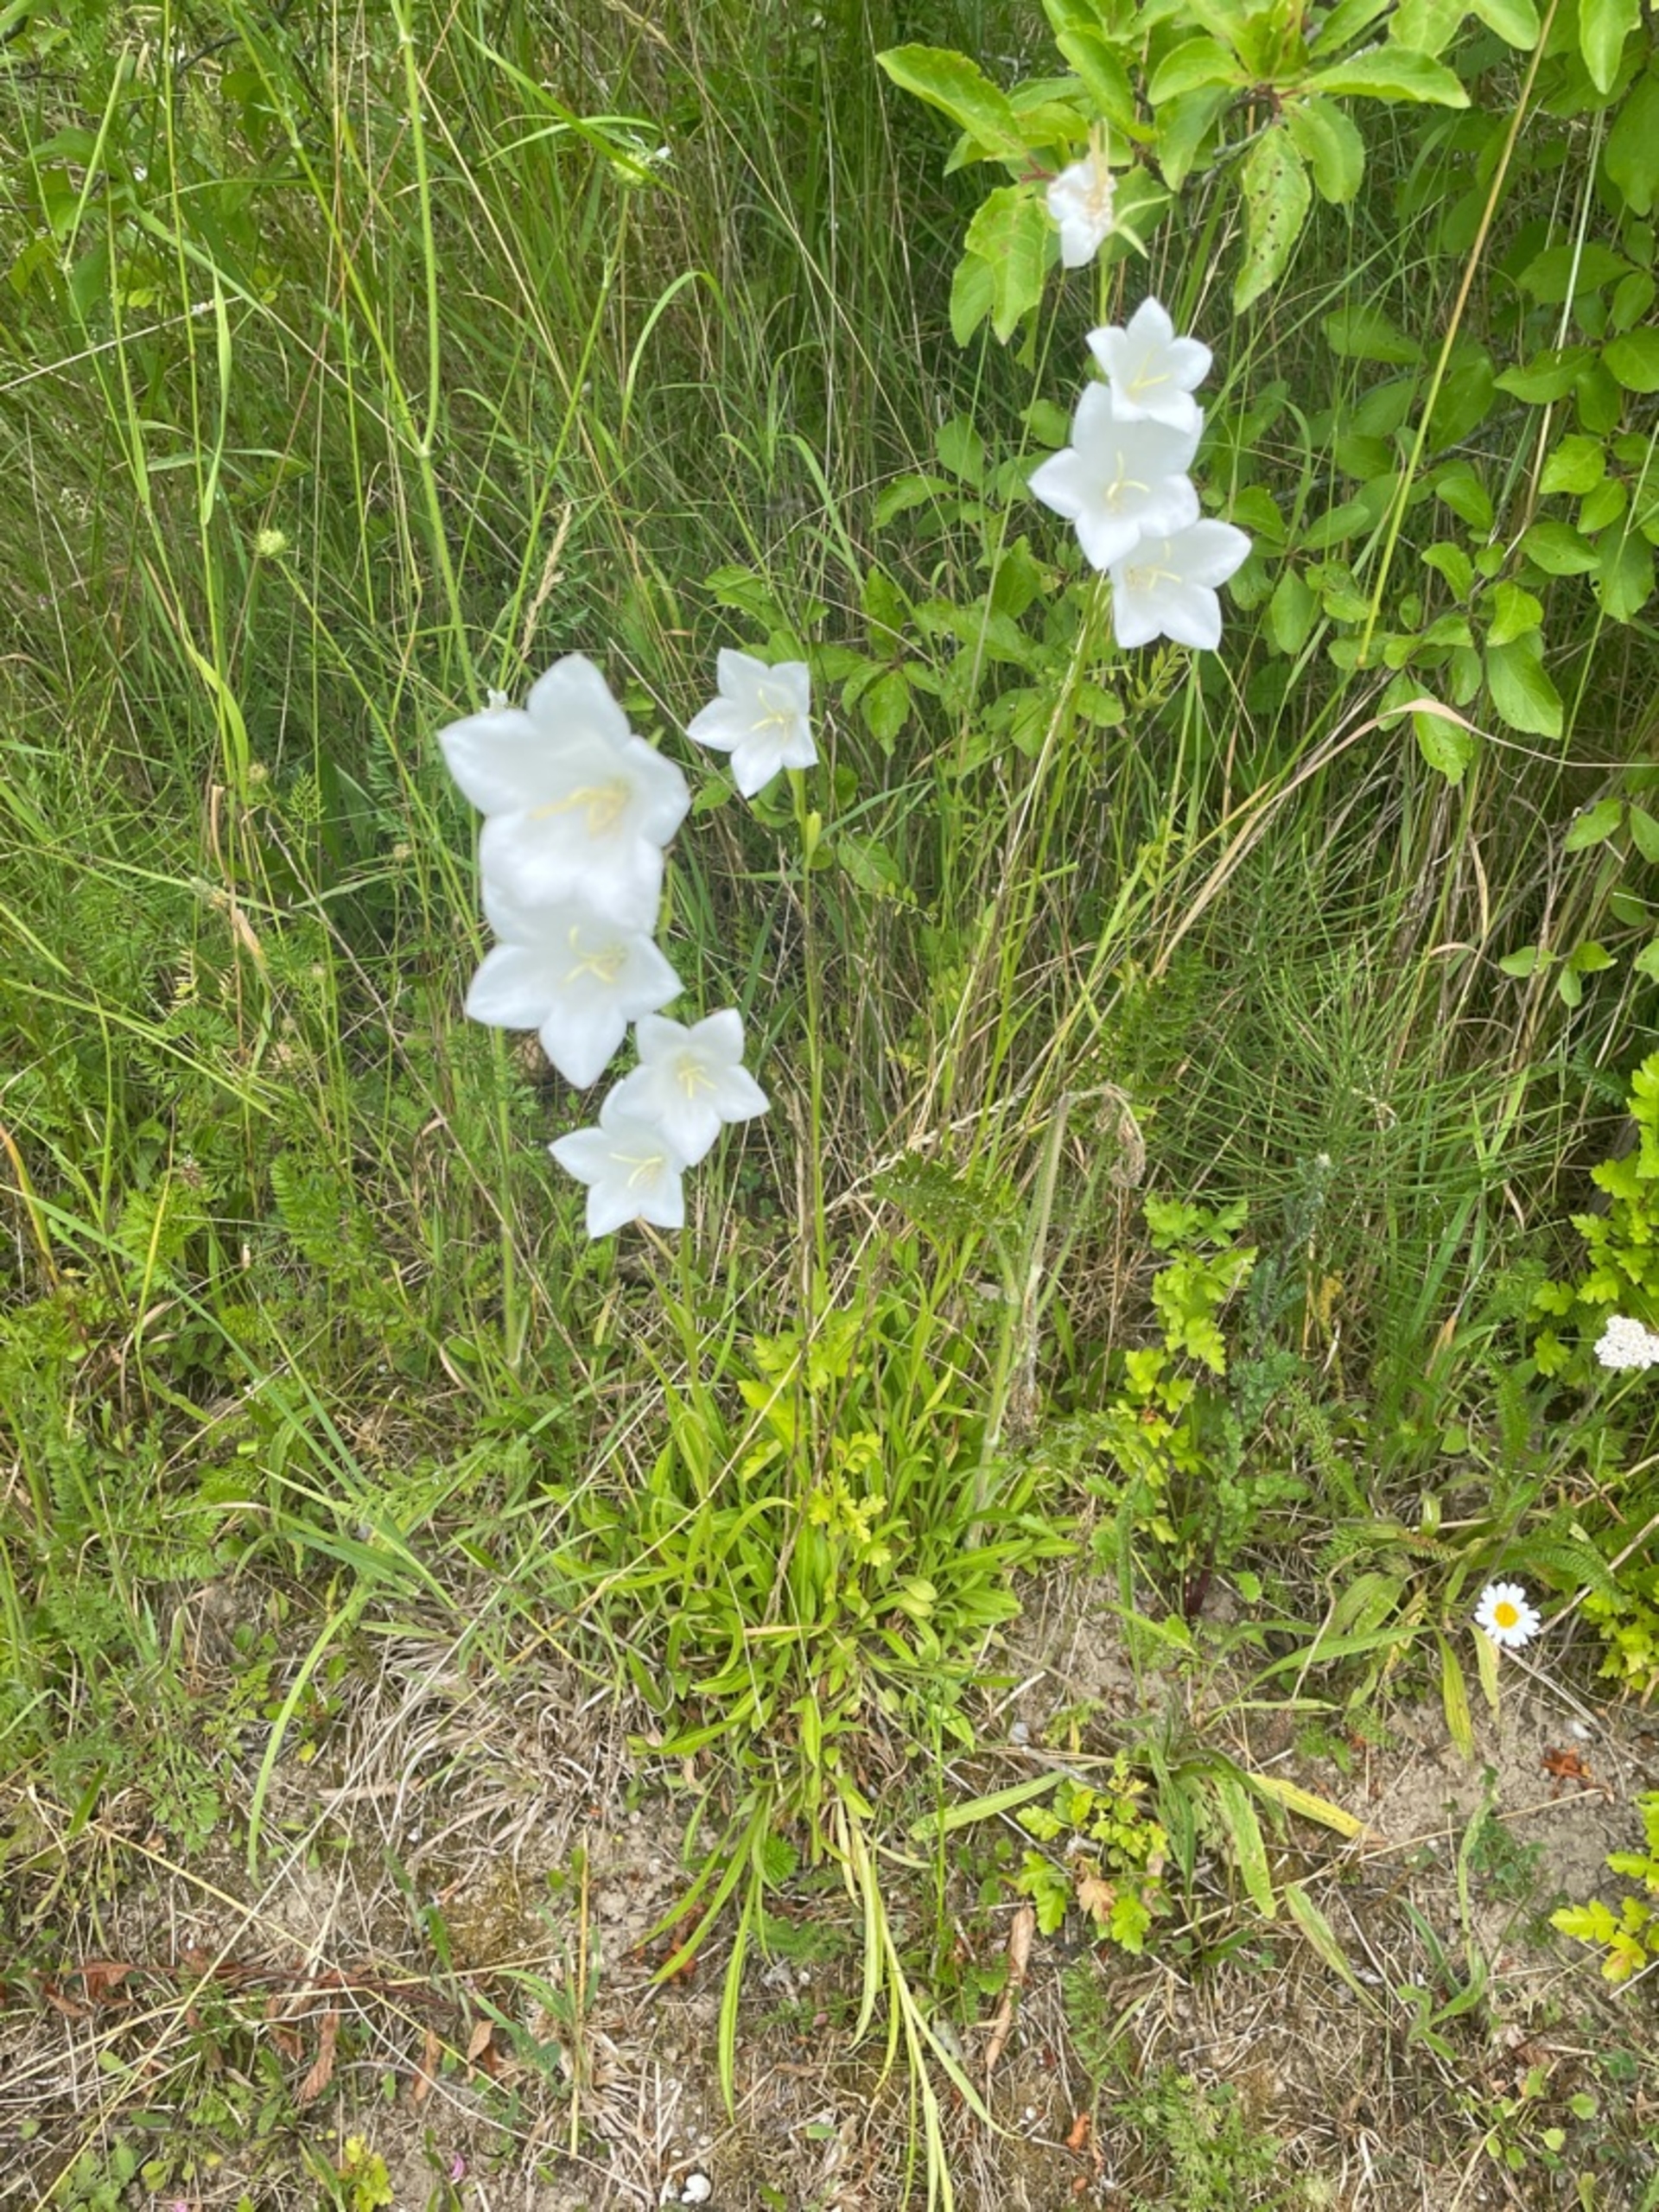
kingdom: Plantae
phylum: Tracheophyta
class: Magnoliopsida
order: Asterales
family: Campanulaceae
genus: Campanula
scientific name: Campanula persicifolia
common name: Smalbladet klokke
